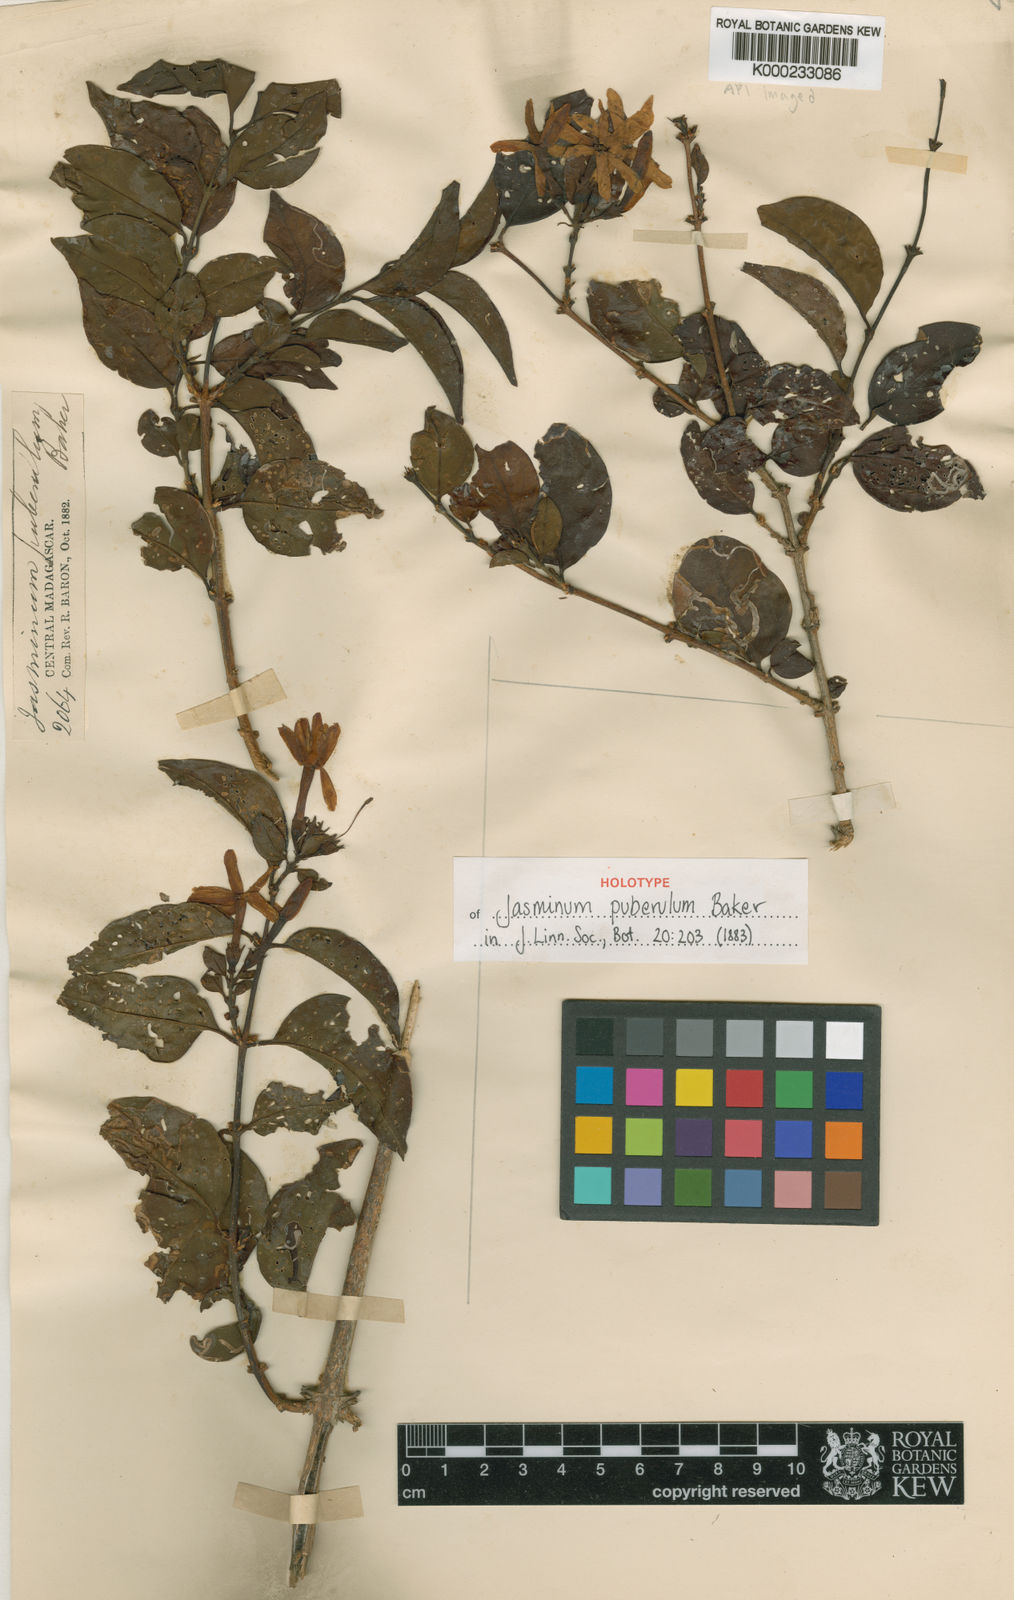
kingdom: Plantae
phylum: Tracheophyta
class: Magnoliopsida
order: Lamiales
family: Oleaceae
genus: Jasminum
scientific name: Jasminum puberulum
